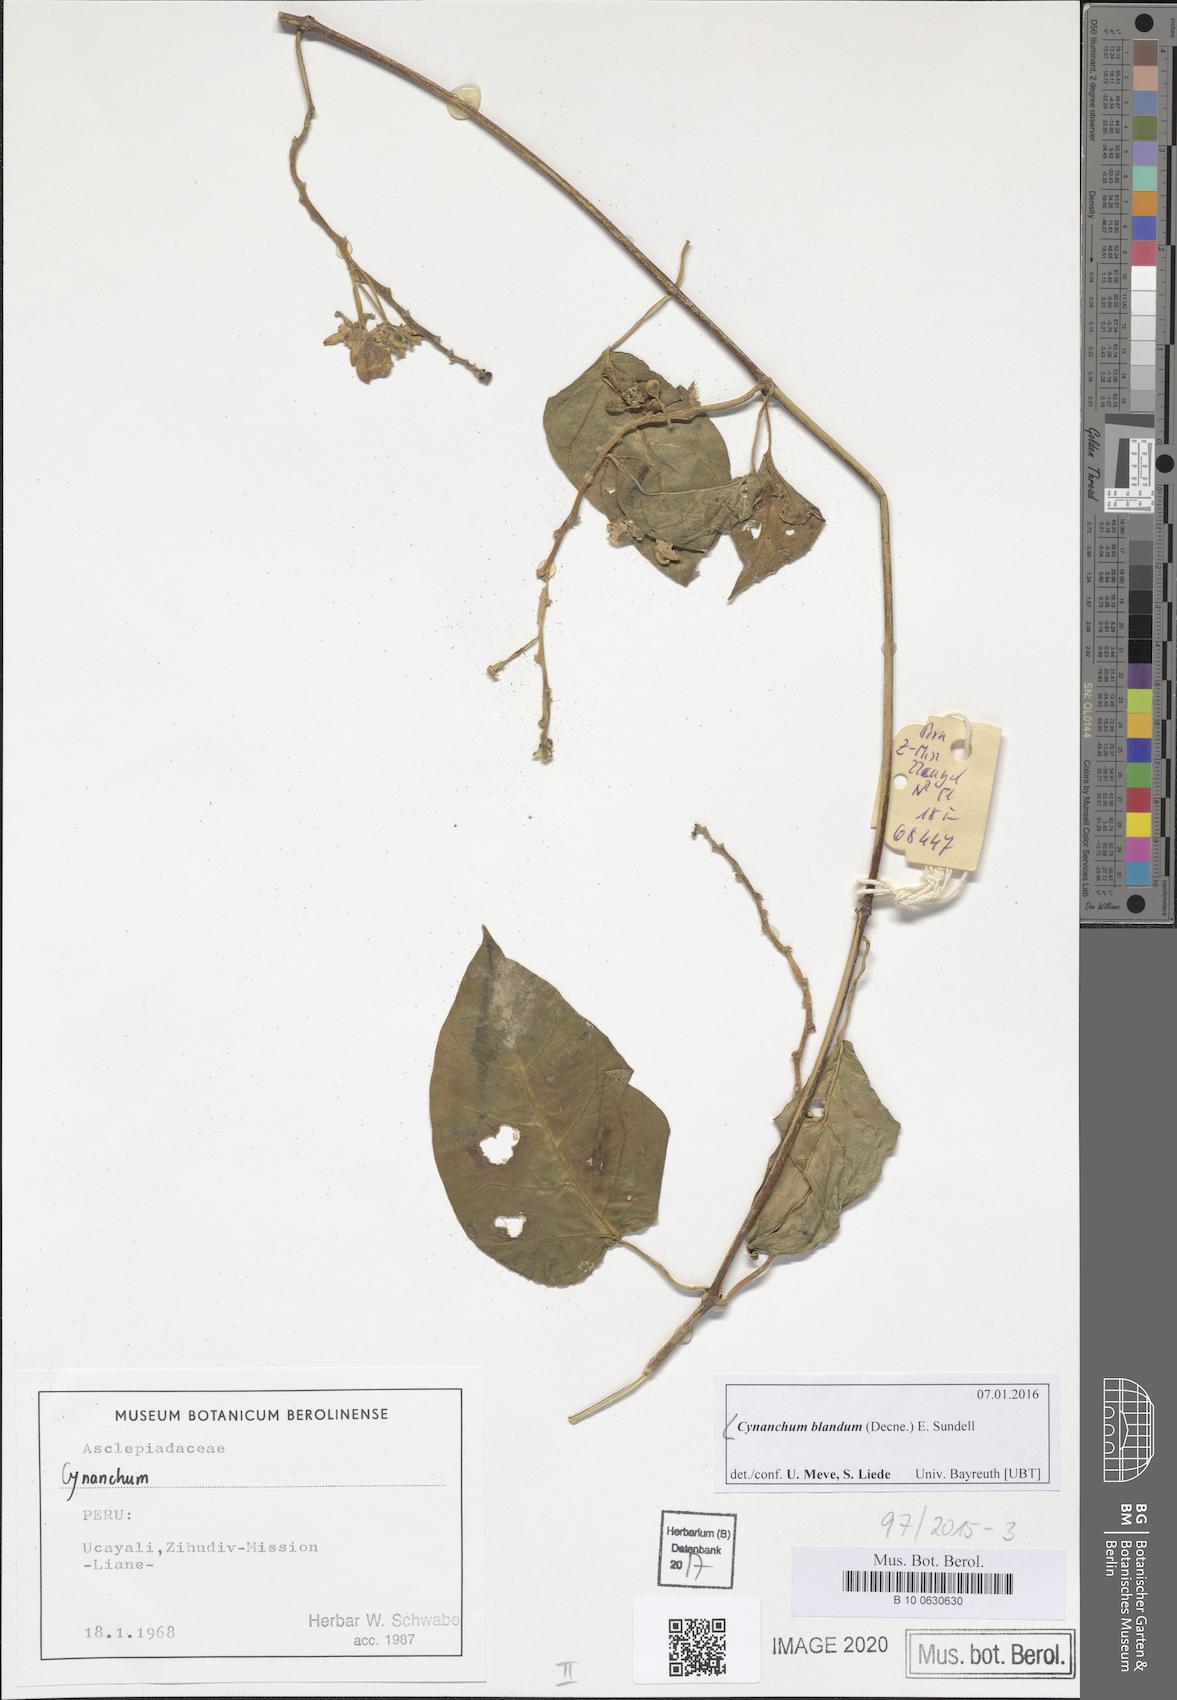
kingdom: Plantae
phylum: Tracheophyta
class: Magnoliopsida
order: Gentianales
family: Apocynaceae
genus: Cynanchum
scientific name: Cynanchum blandum
